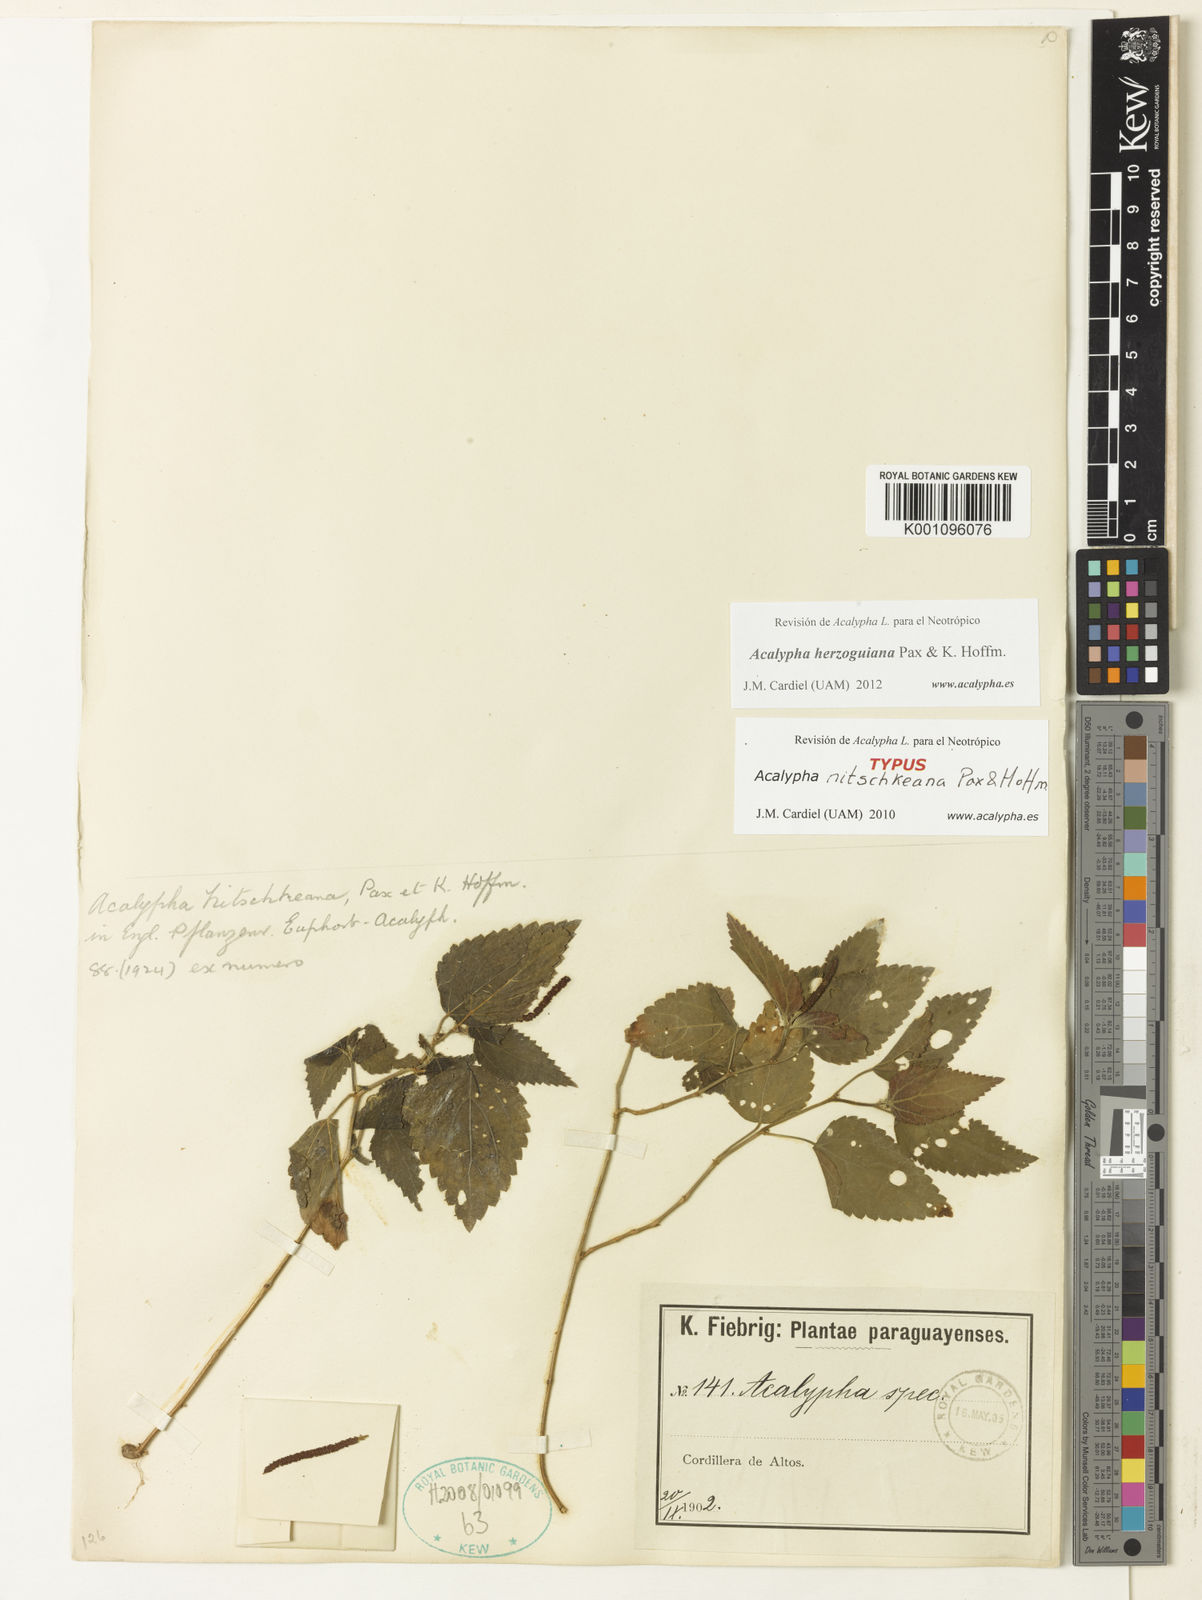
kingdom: Plantae
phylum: Tracheophyta
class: Magnoliopsida
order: Malpighiales
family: Euphorbiaceae
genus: Acalypha
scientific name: Acalypha herzogiana
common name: Dwarf-cattail
